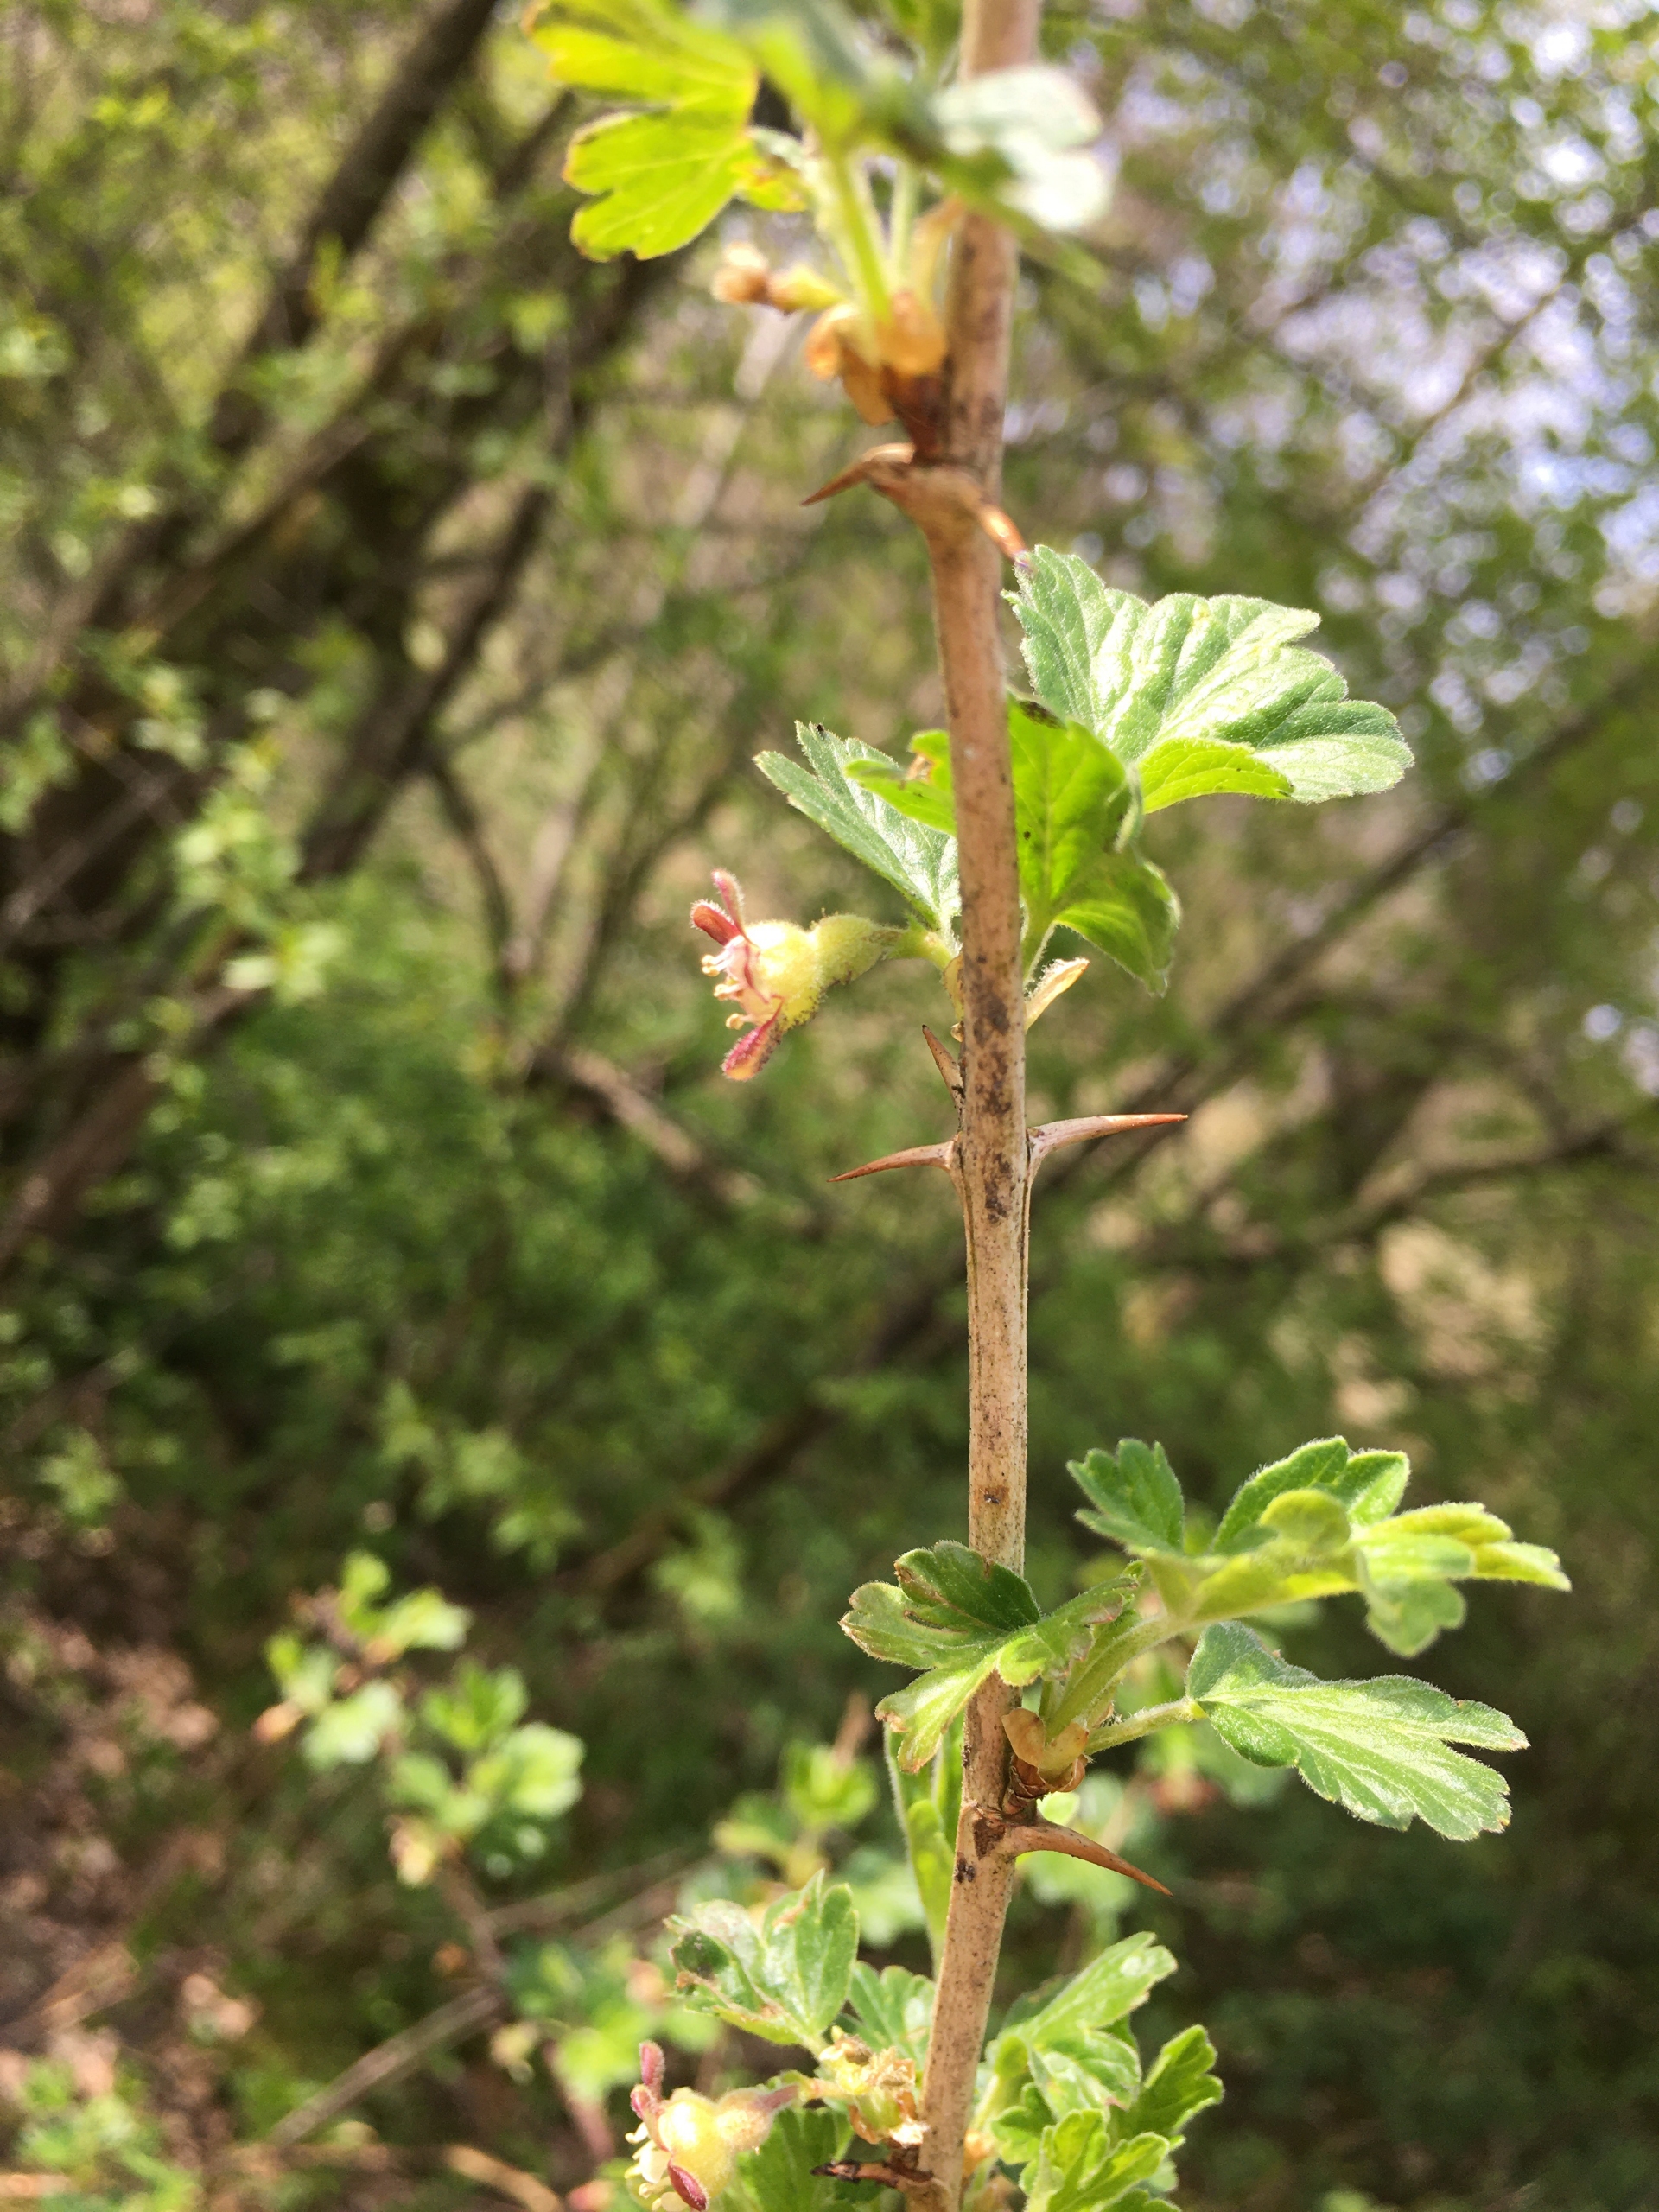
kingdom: Plantae
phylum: Tracheophyta
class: Magnoliopsida
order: Saxifragales
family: Grossulariaceae
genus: Ribes
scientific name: Ribes uva-crispa
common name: Stikkelsbær
